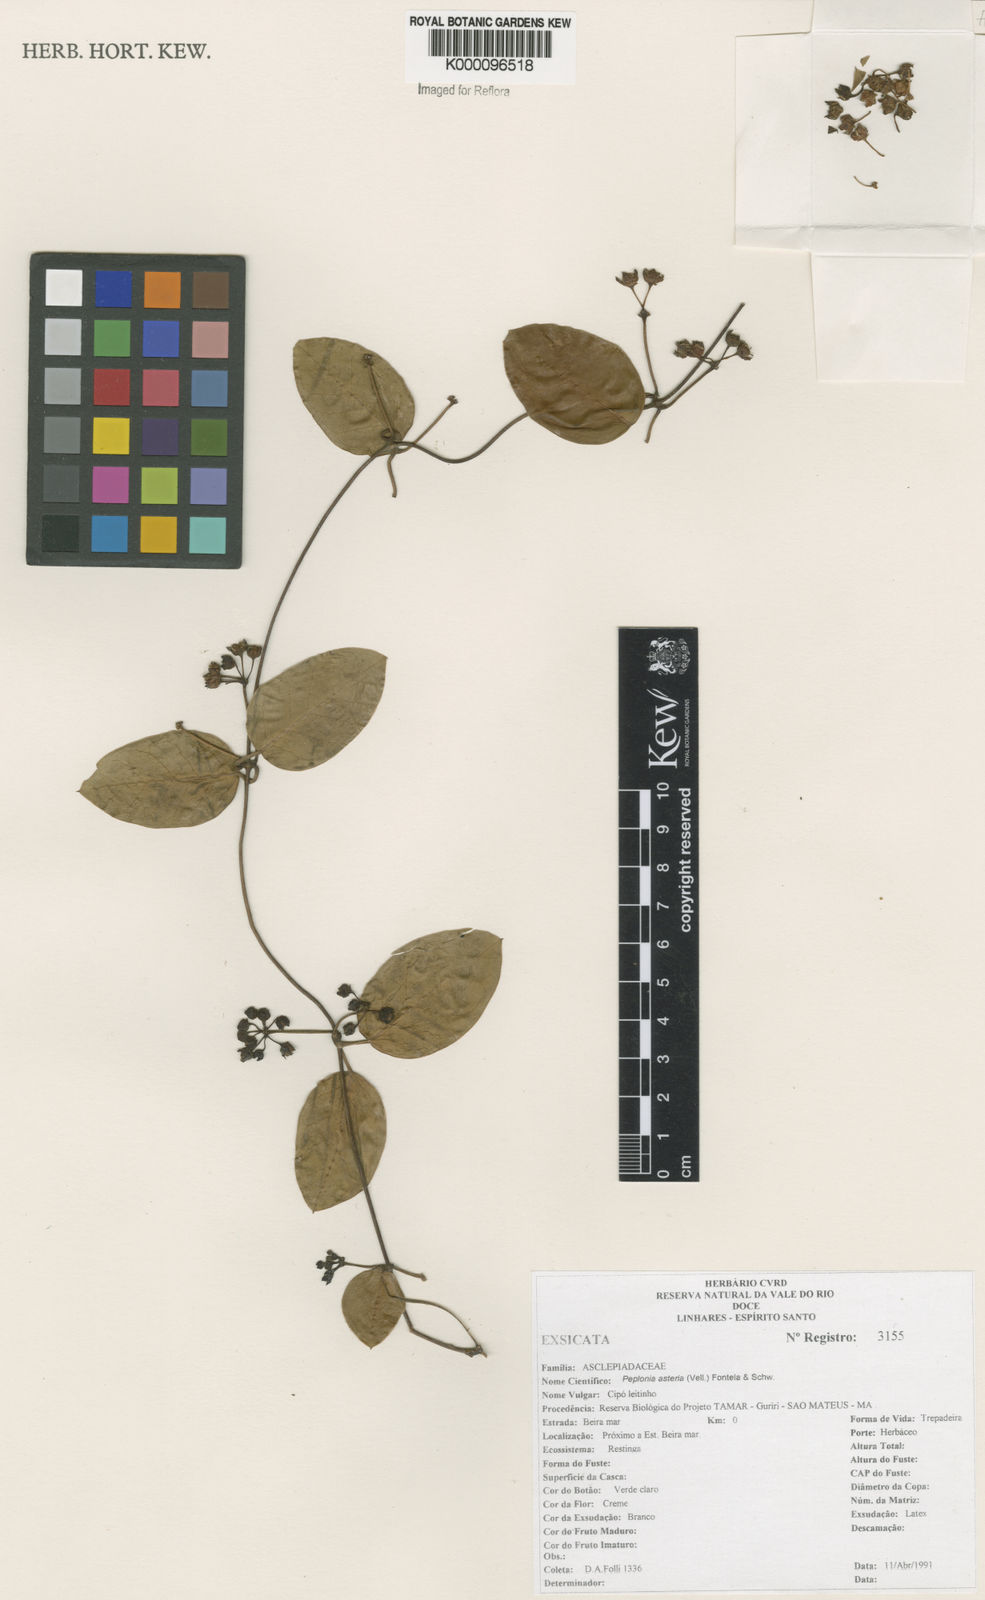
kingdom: Plantae
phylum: Tracheophyta
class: Magnoliopsida
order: Gentianales
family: Apocynaceae
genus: Peplonia
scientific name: Peplonia asteria
